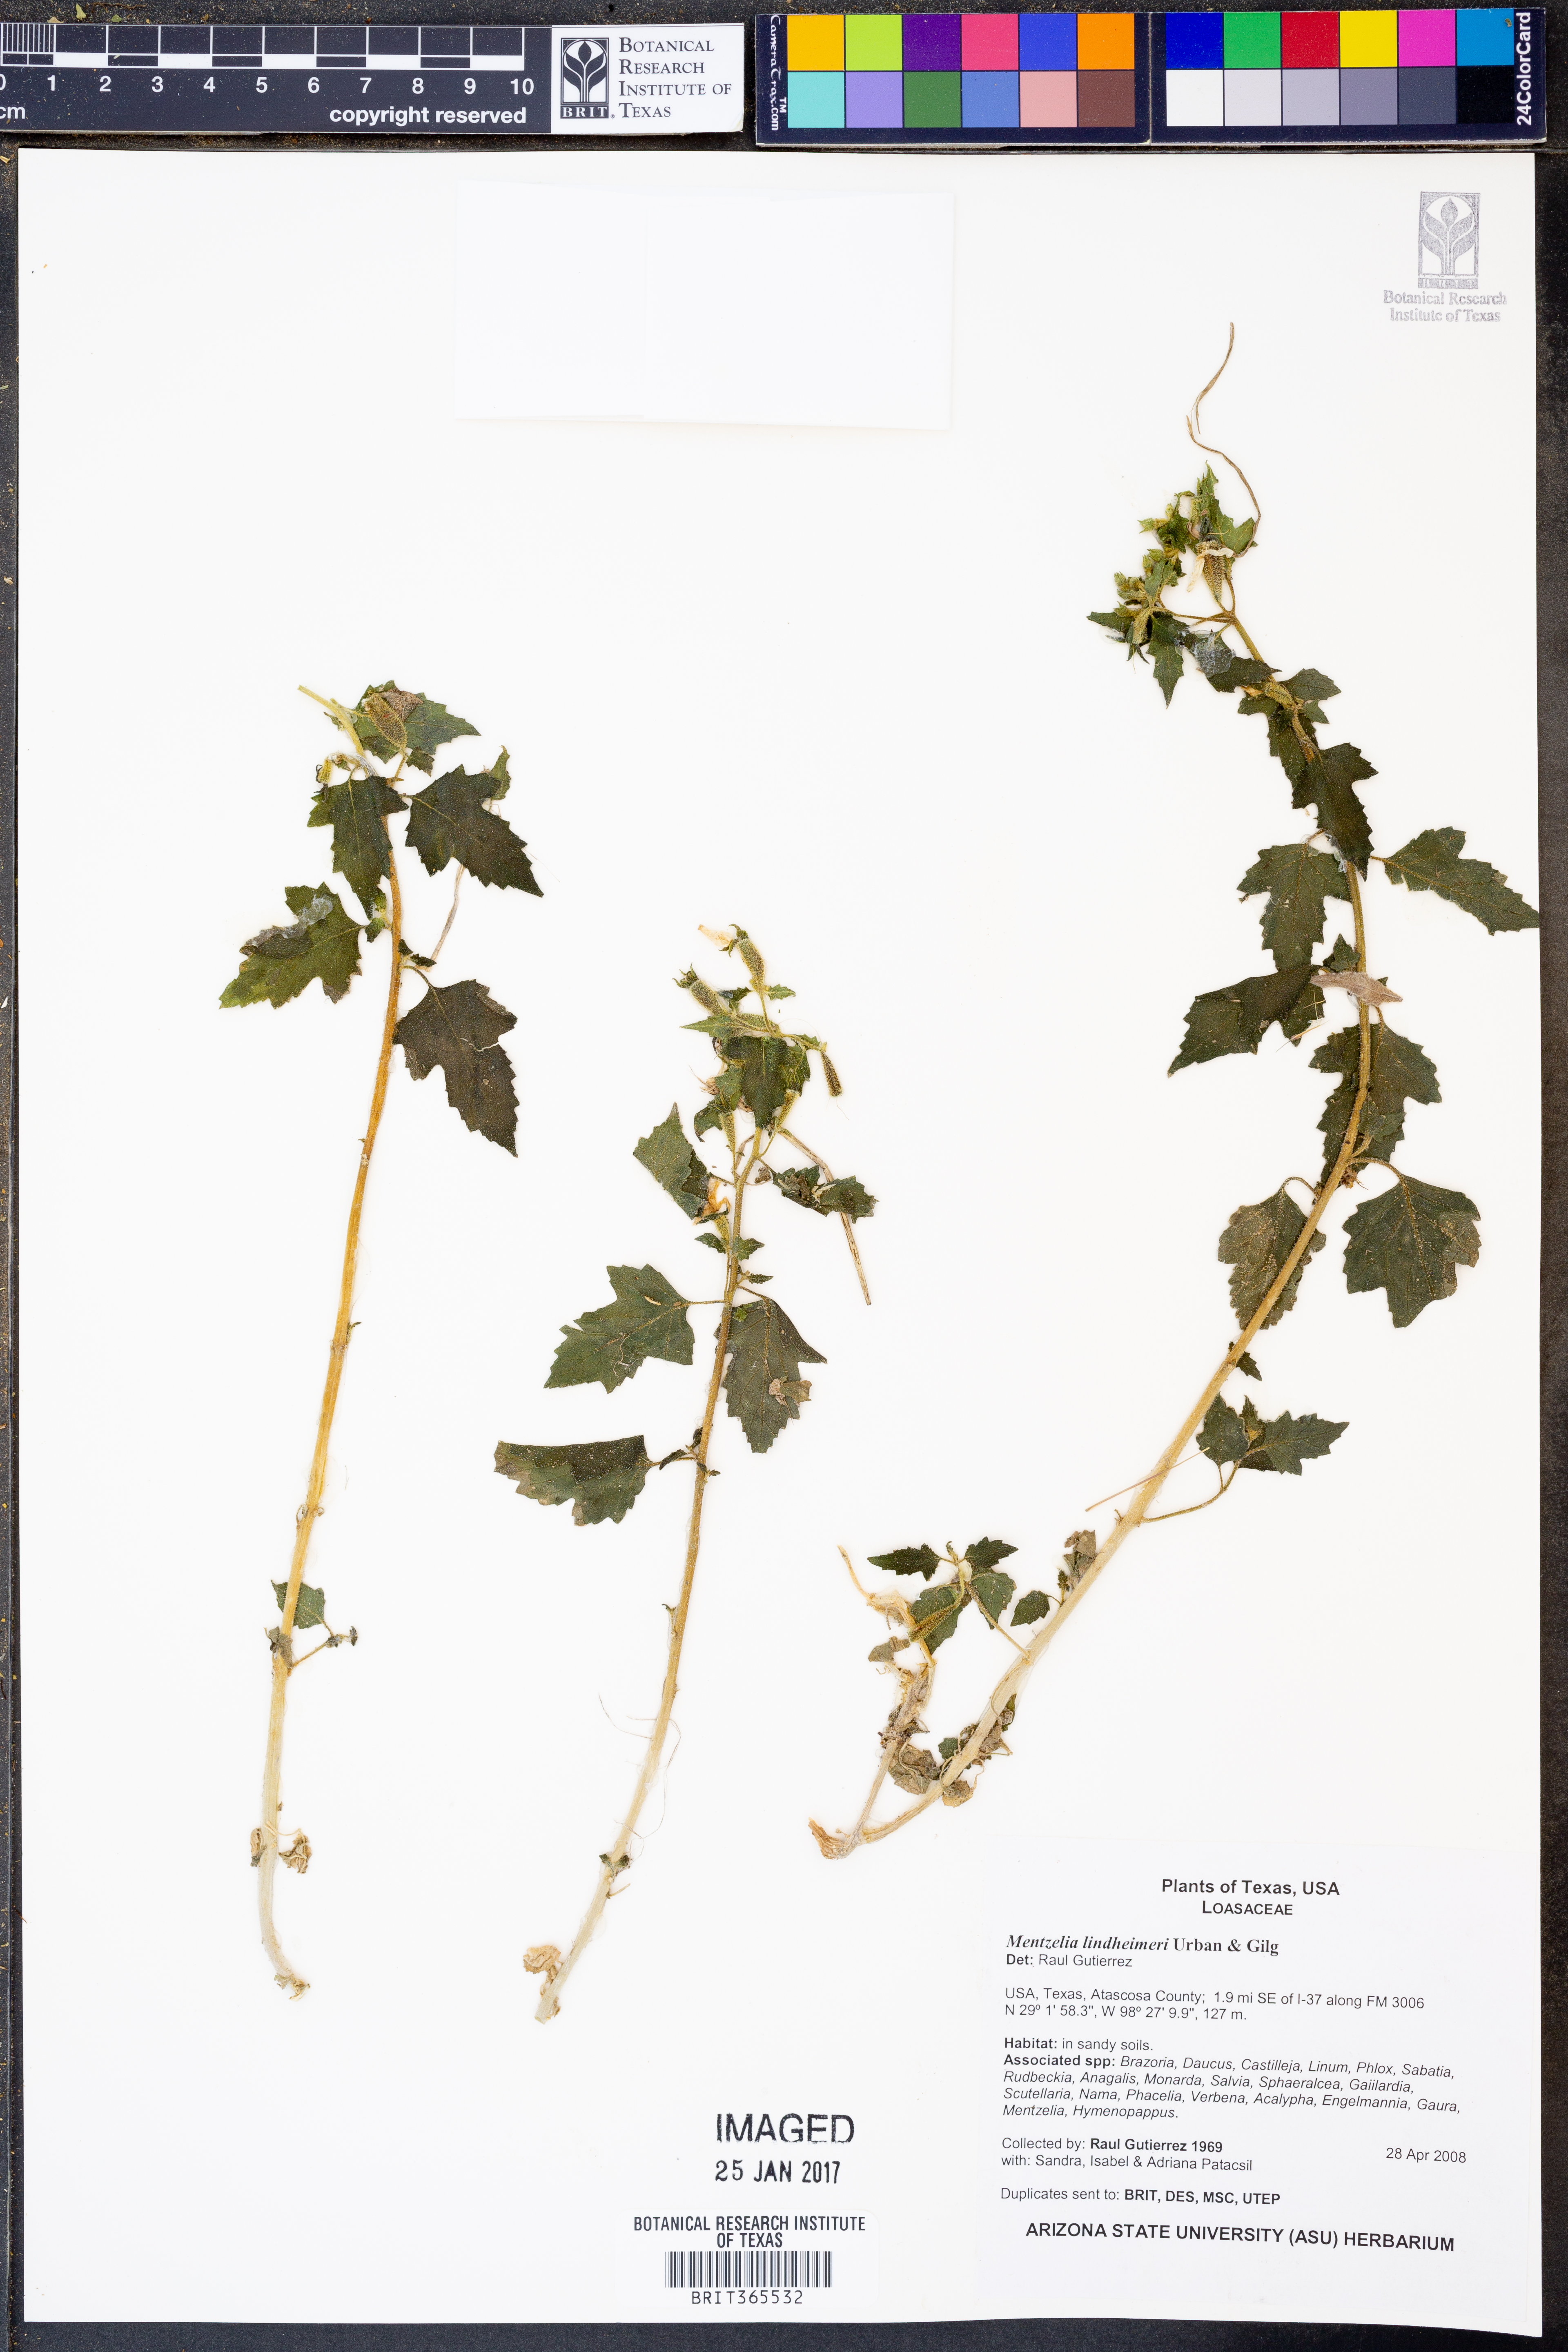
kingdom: Plantae
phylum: Tracheophyta
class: Magnoliopsida
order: Cornales
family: Loasaceae
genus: Mentzelia
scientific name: Mentzelia lindheimeri
